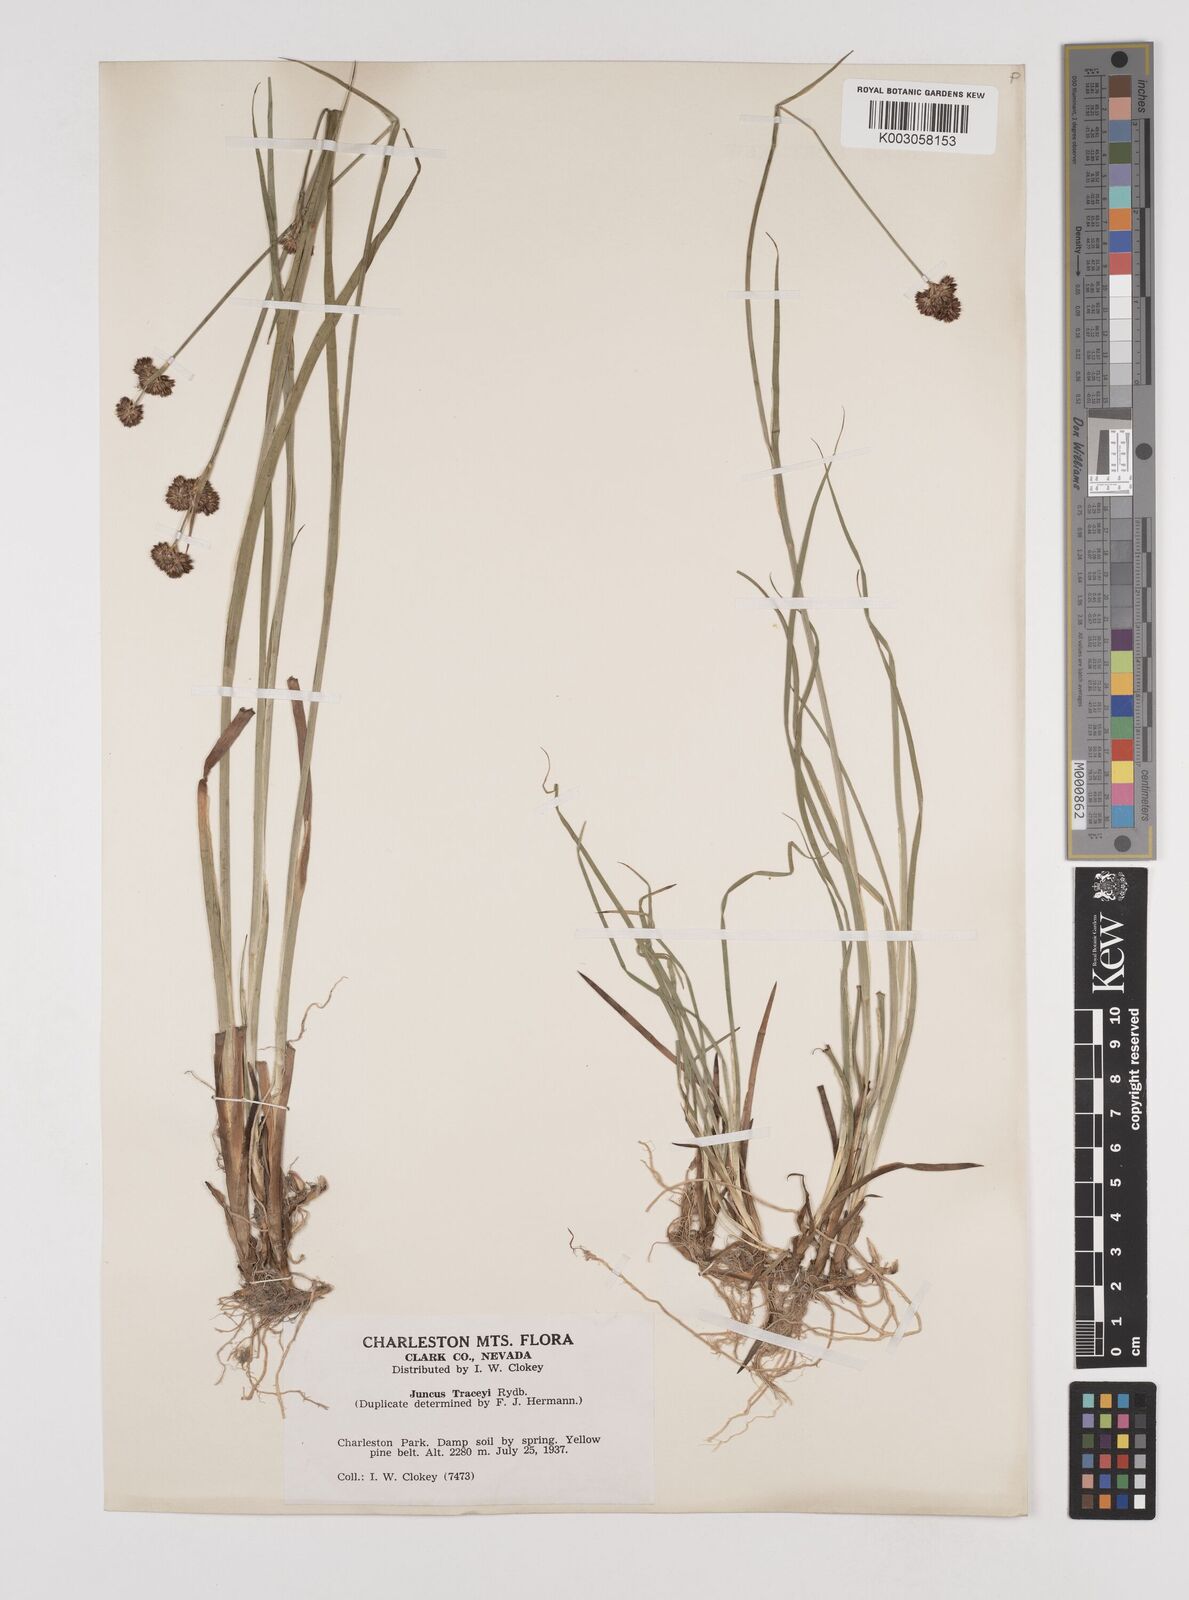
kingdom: Plantae
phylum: Tracheophyta
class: Liliopsida
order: Poales
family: Juncaceae
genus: Juncus
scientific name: Juncus tracyi
